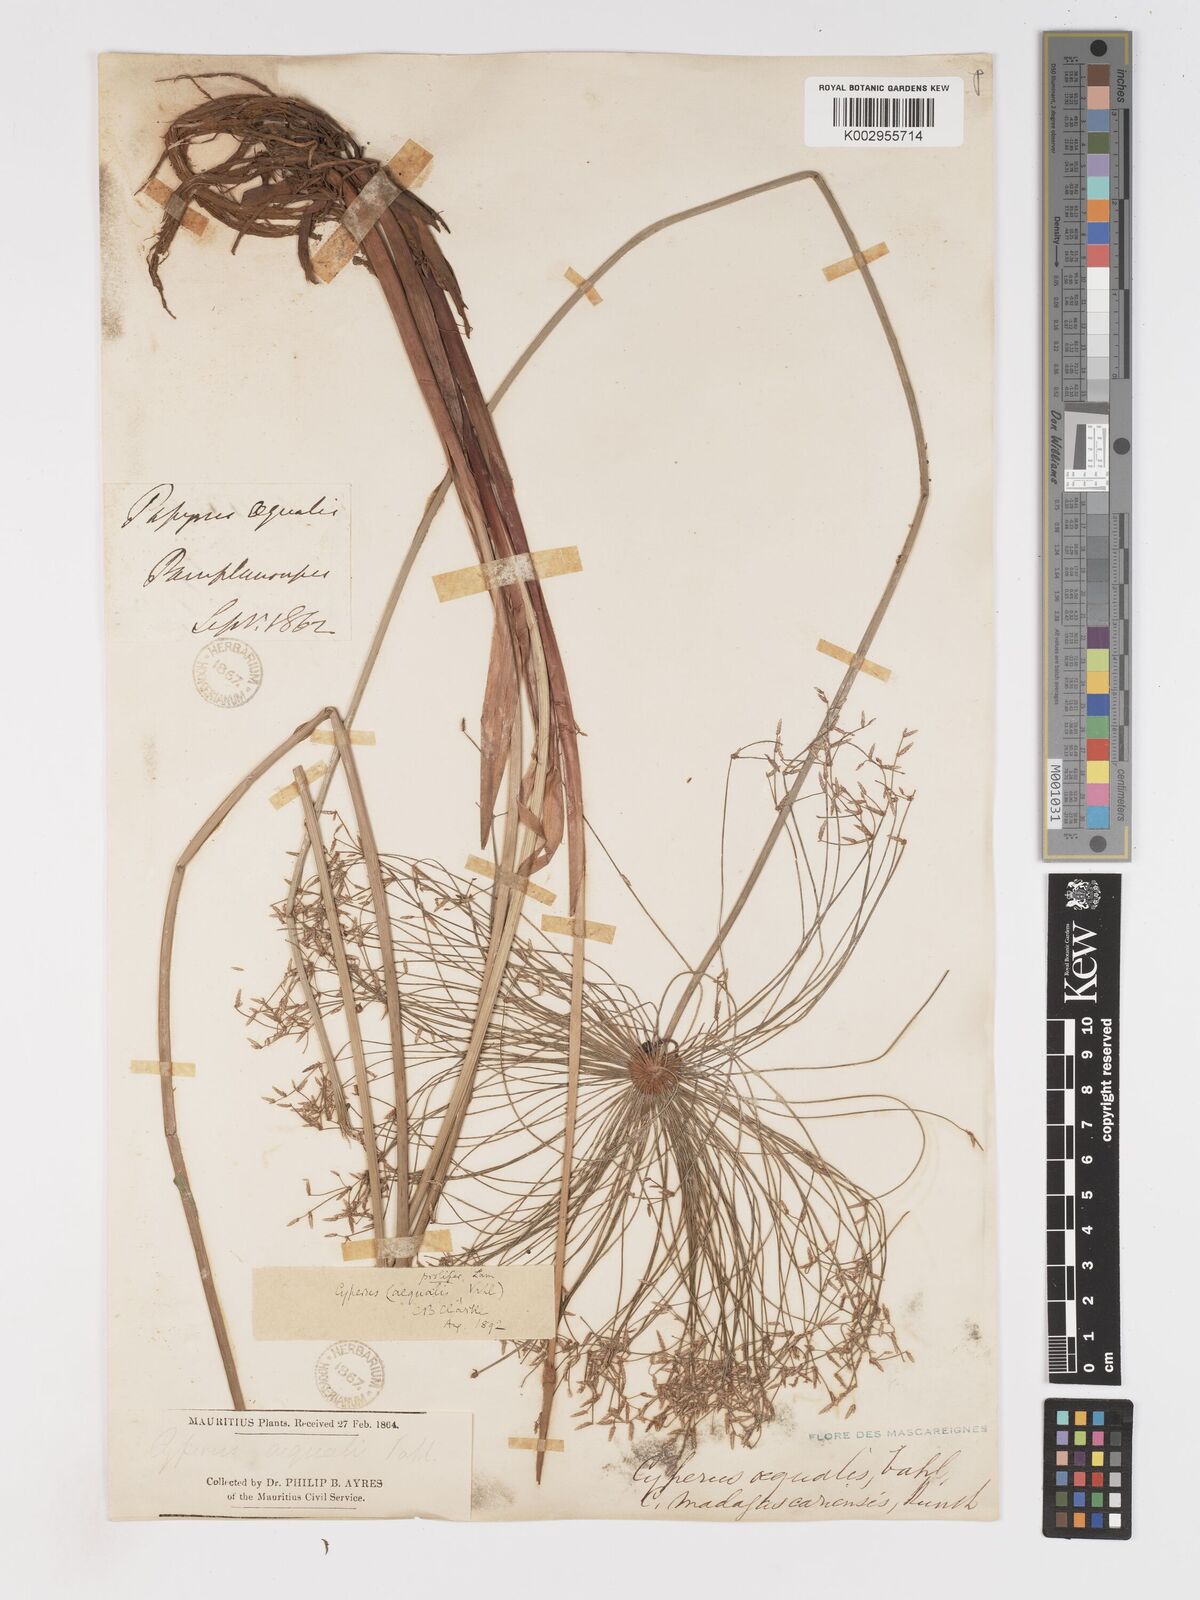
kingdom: Plantae
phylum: Tracheophyta
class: Liliopsida
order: Poales
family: Cyperaceae
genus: Cyperus
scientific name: Cyperus prolifer
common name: Miniature flatsedge
